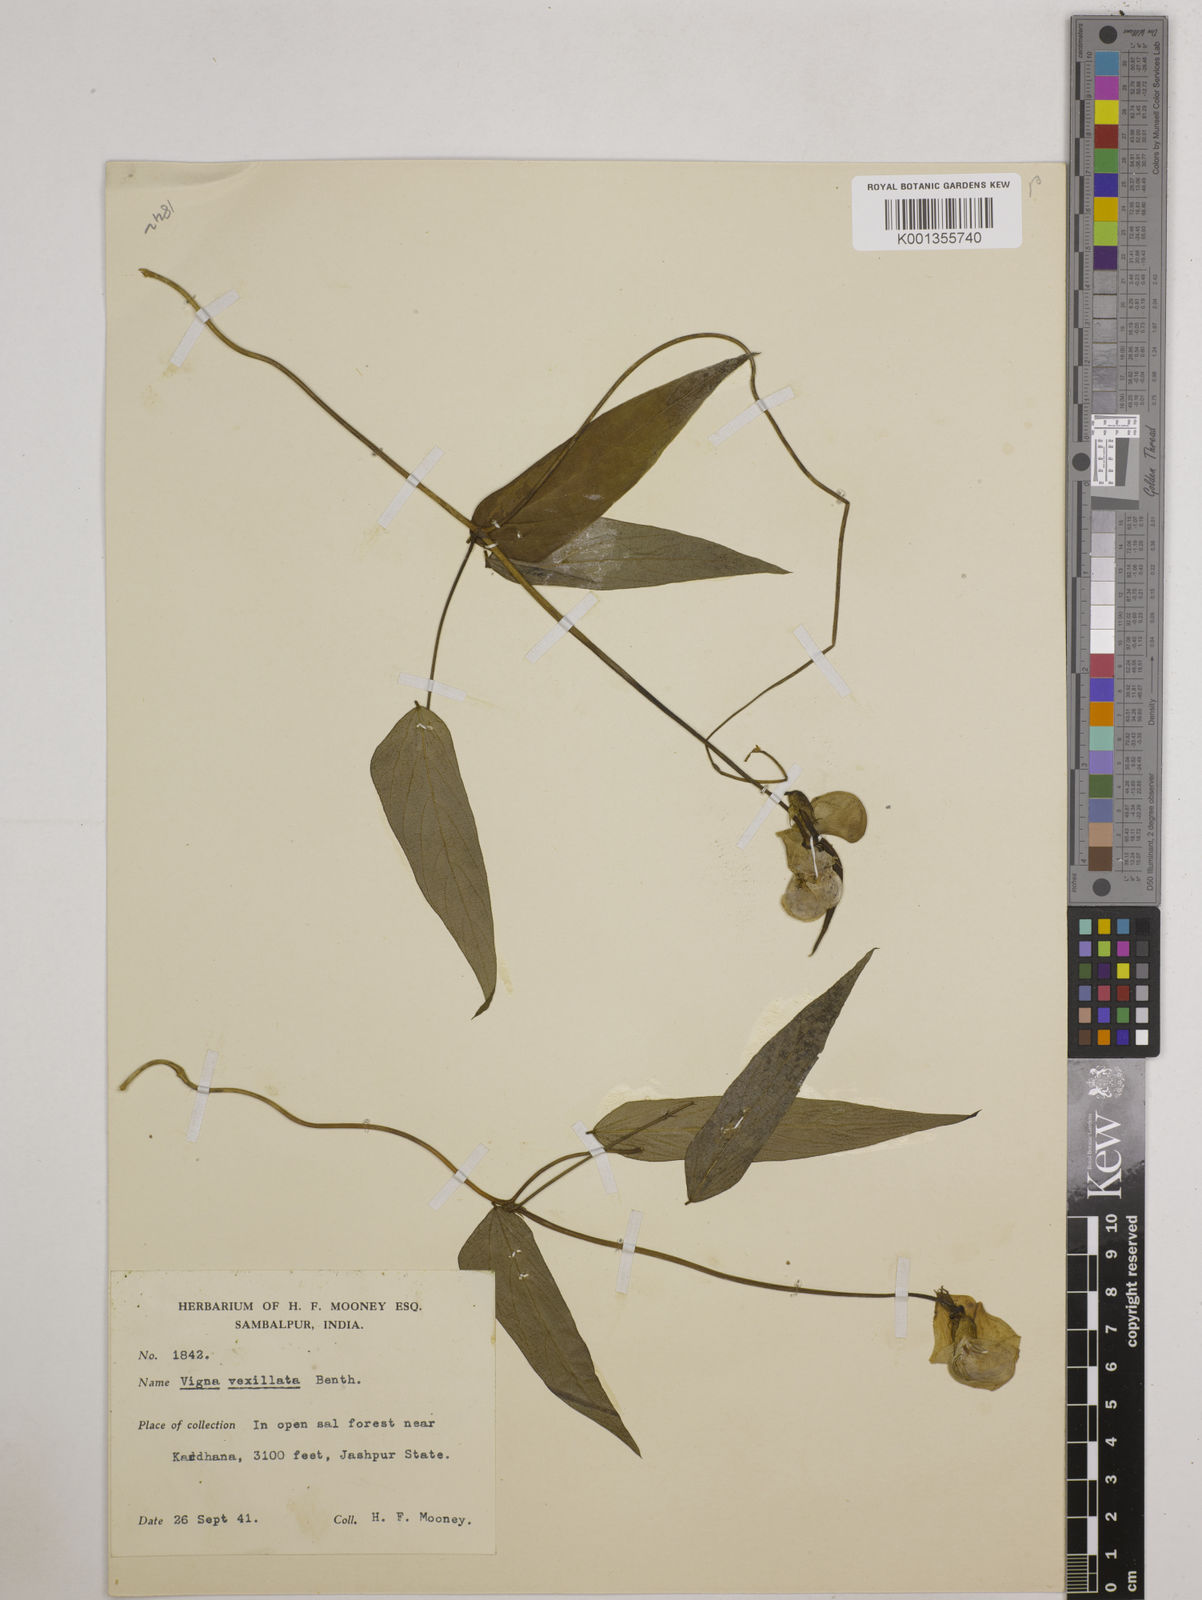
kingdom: Plantae
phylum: Tracheophyta
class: Magnoliopsida
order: Fabales
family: Fabaceae
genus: Vigna
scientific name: Vigna vexillata
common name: Zombi pea
